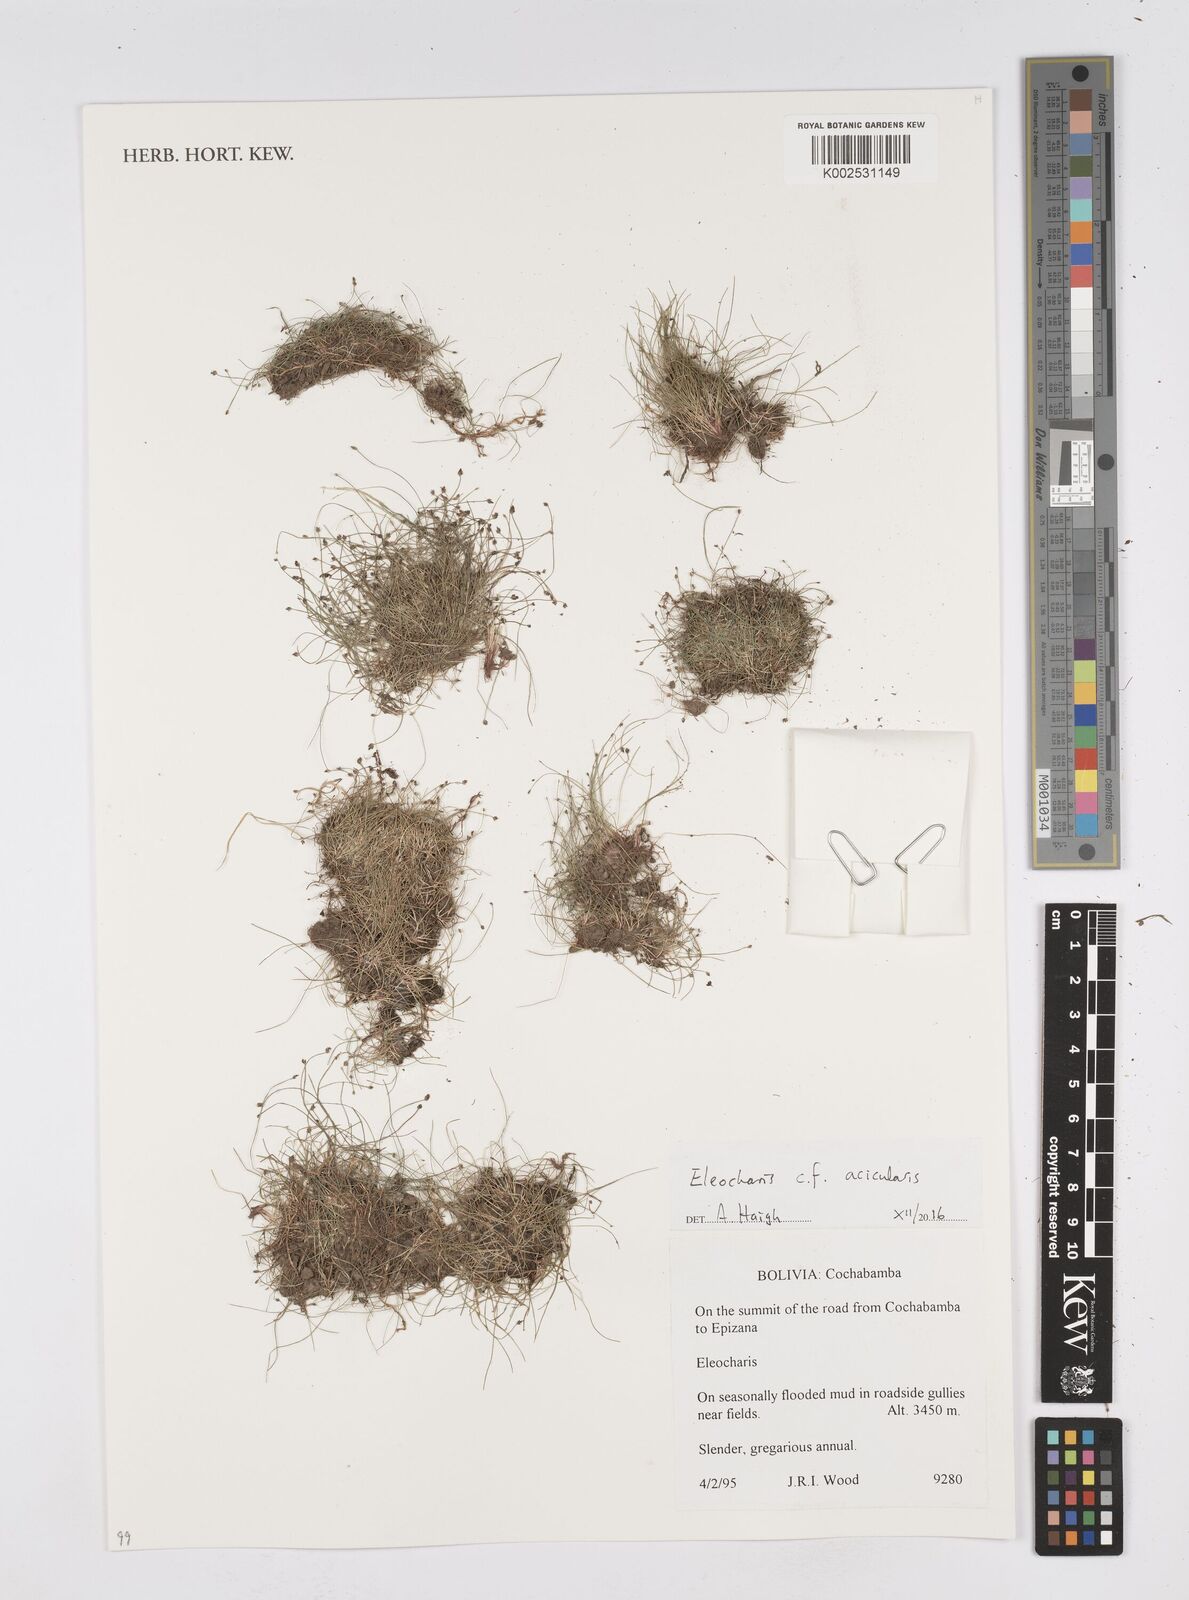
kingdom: Plantae
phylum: Tracheophyta
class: Liliopsida
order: Poales
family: Cyperaceae
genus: Eleocharis
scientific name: Eleocharis acicularis
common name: Needle spike-rush
